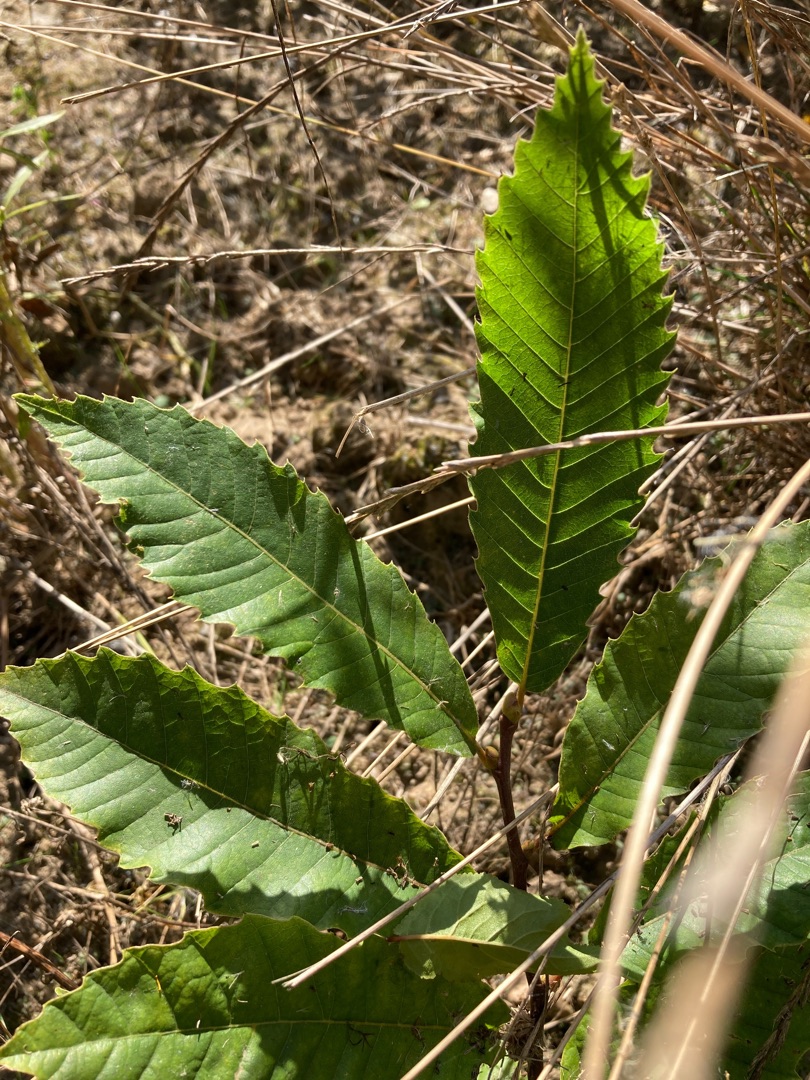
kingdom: Plantae
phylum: Tracheophyta
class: Magnoliopsida
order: Fagales
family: Fagaceae
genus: Castanea
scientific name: Castanea sativa
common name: Ægte kastanie
